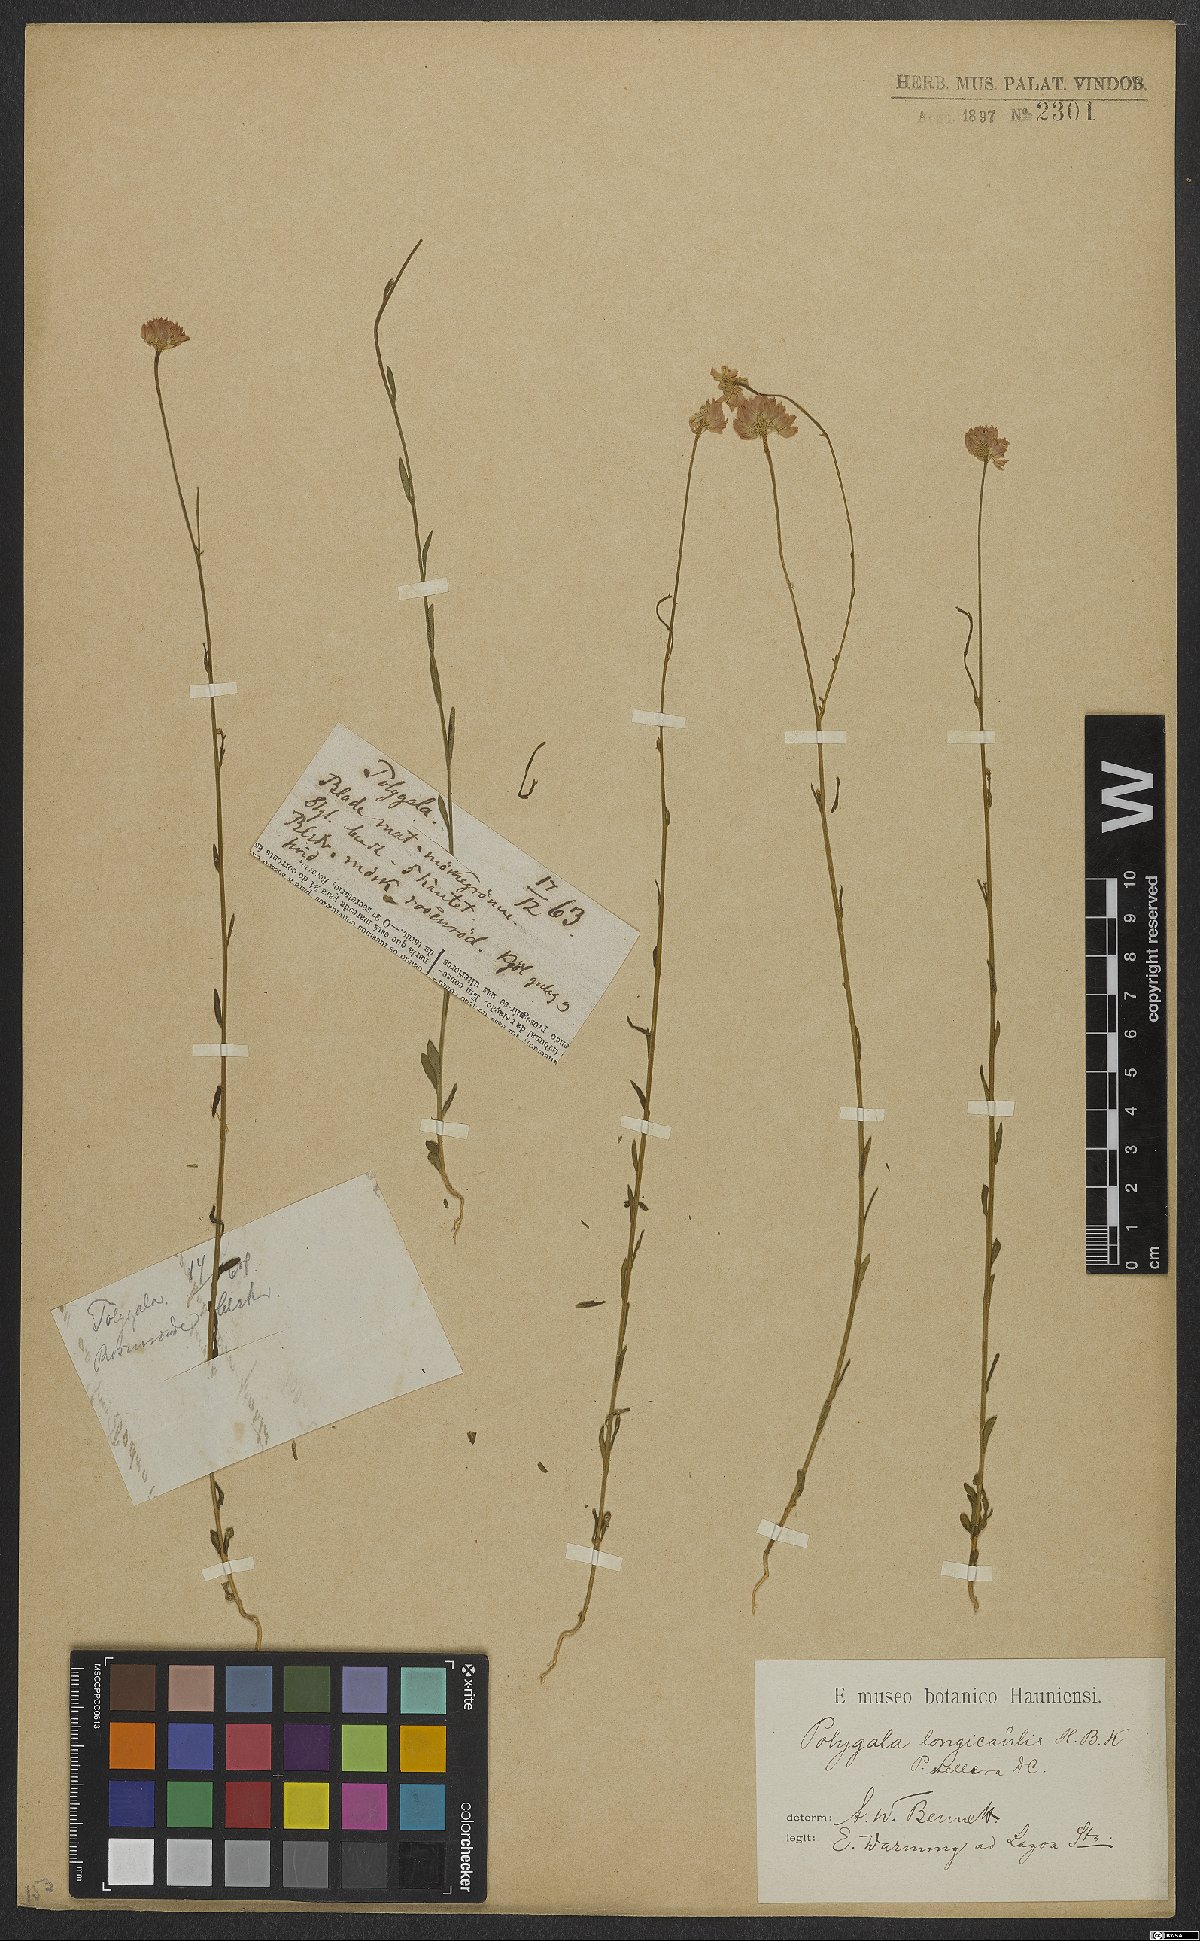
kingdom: Plantae
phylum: Tracheophyta
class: Magnoliopsida
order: Fabales
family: Polygalaceae
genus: Polygala
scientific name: Polygala longicaulis
